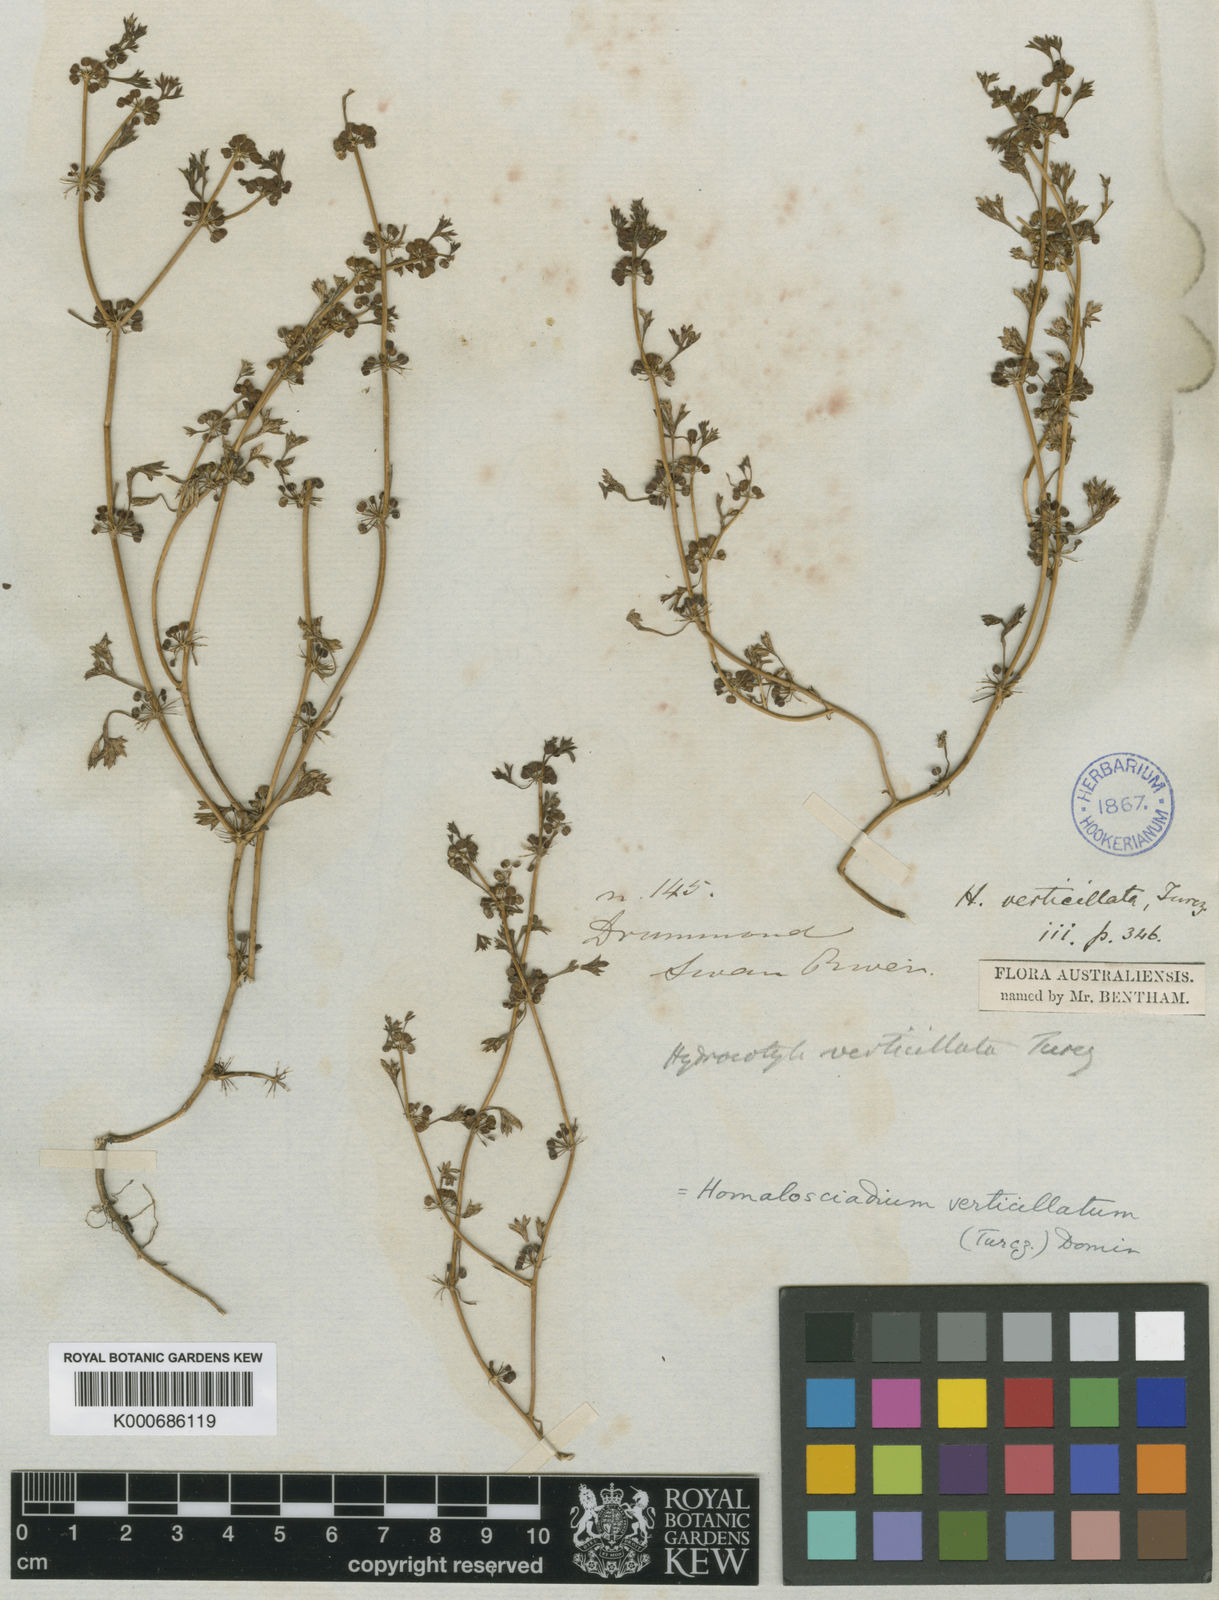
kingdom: Plantae
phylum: Tracheophyta
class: Magnoliopsida
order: Apiales
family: Apiaceae
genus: Homalosciadium
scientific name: Homalosciadium homalocarpum
